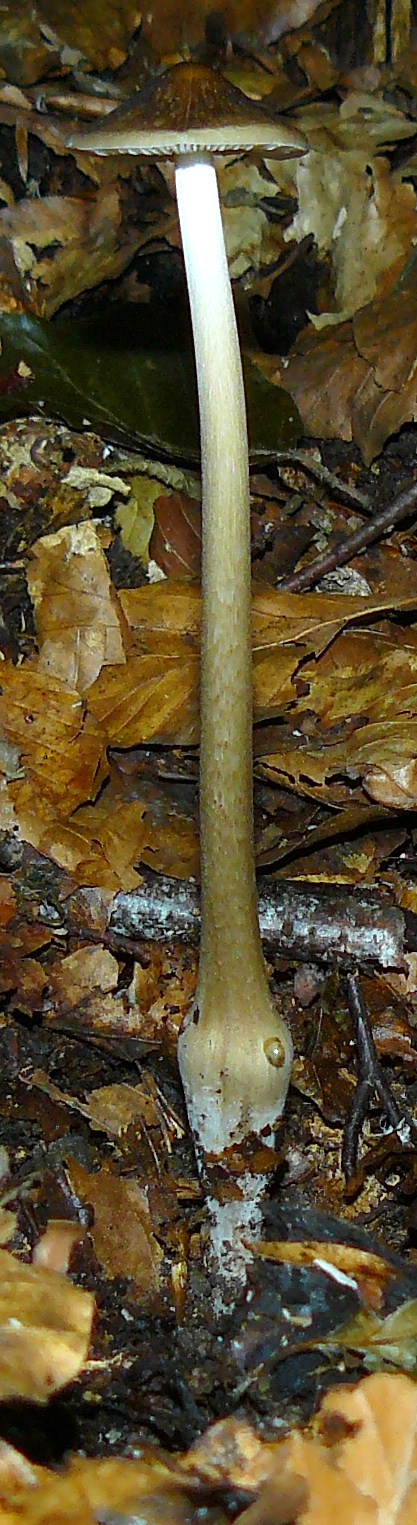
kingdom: Fungi
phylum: Basidiomycota
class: Agaricomycetes
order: Agaricales
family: Physalacriaceae
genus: Hymenopellis
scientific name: Hymenopellis radicata
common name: almindelig pælerodshat
